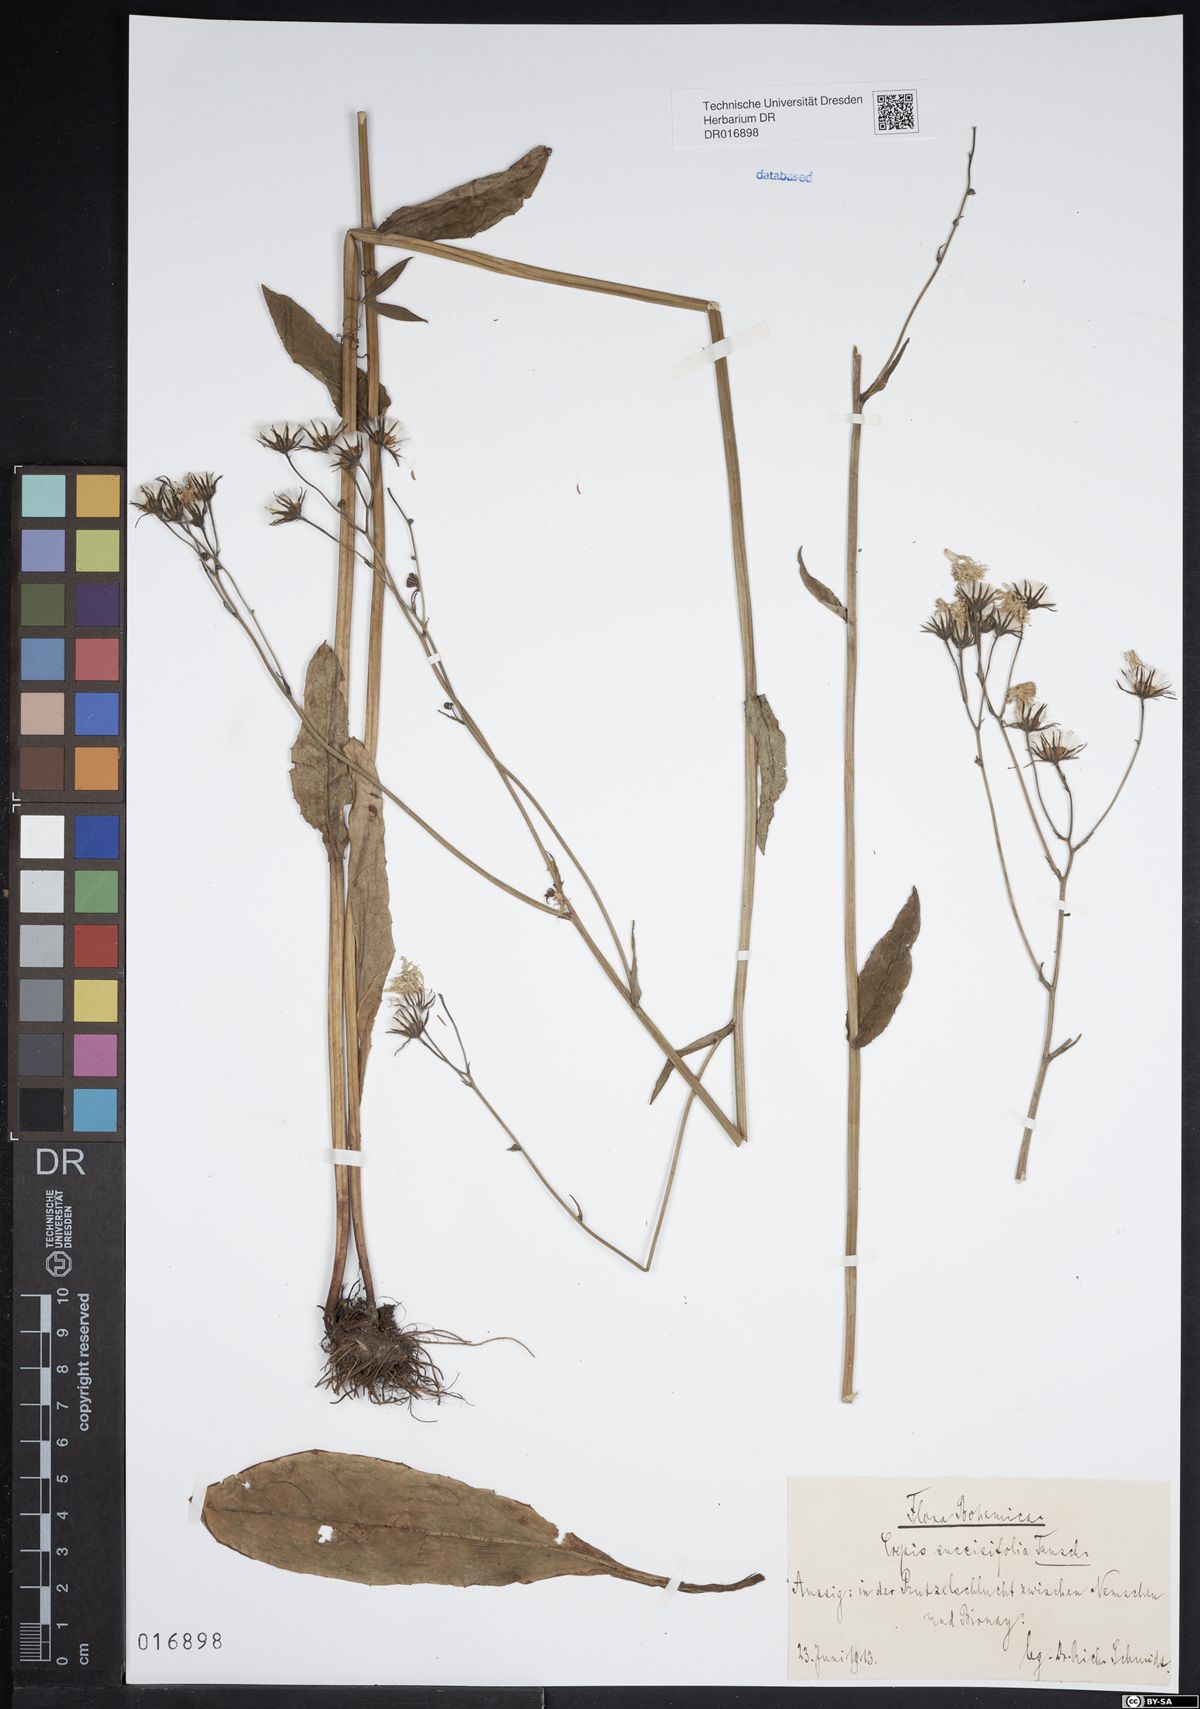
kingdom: Plantae
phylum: Tracheophyta
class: Magnoliopsida
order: Asterales
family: Asteraceae
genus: Crepis
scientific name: Crepis mollis
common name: Northern hawk's-beard
